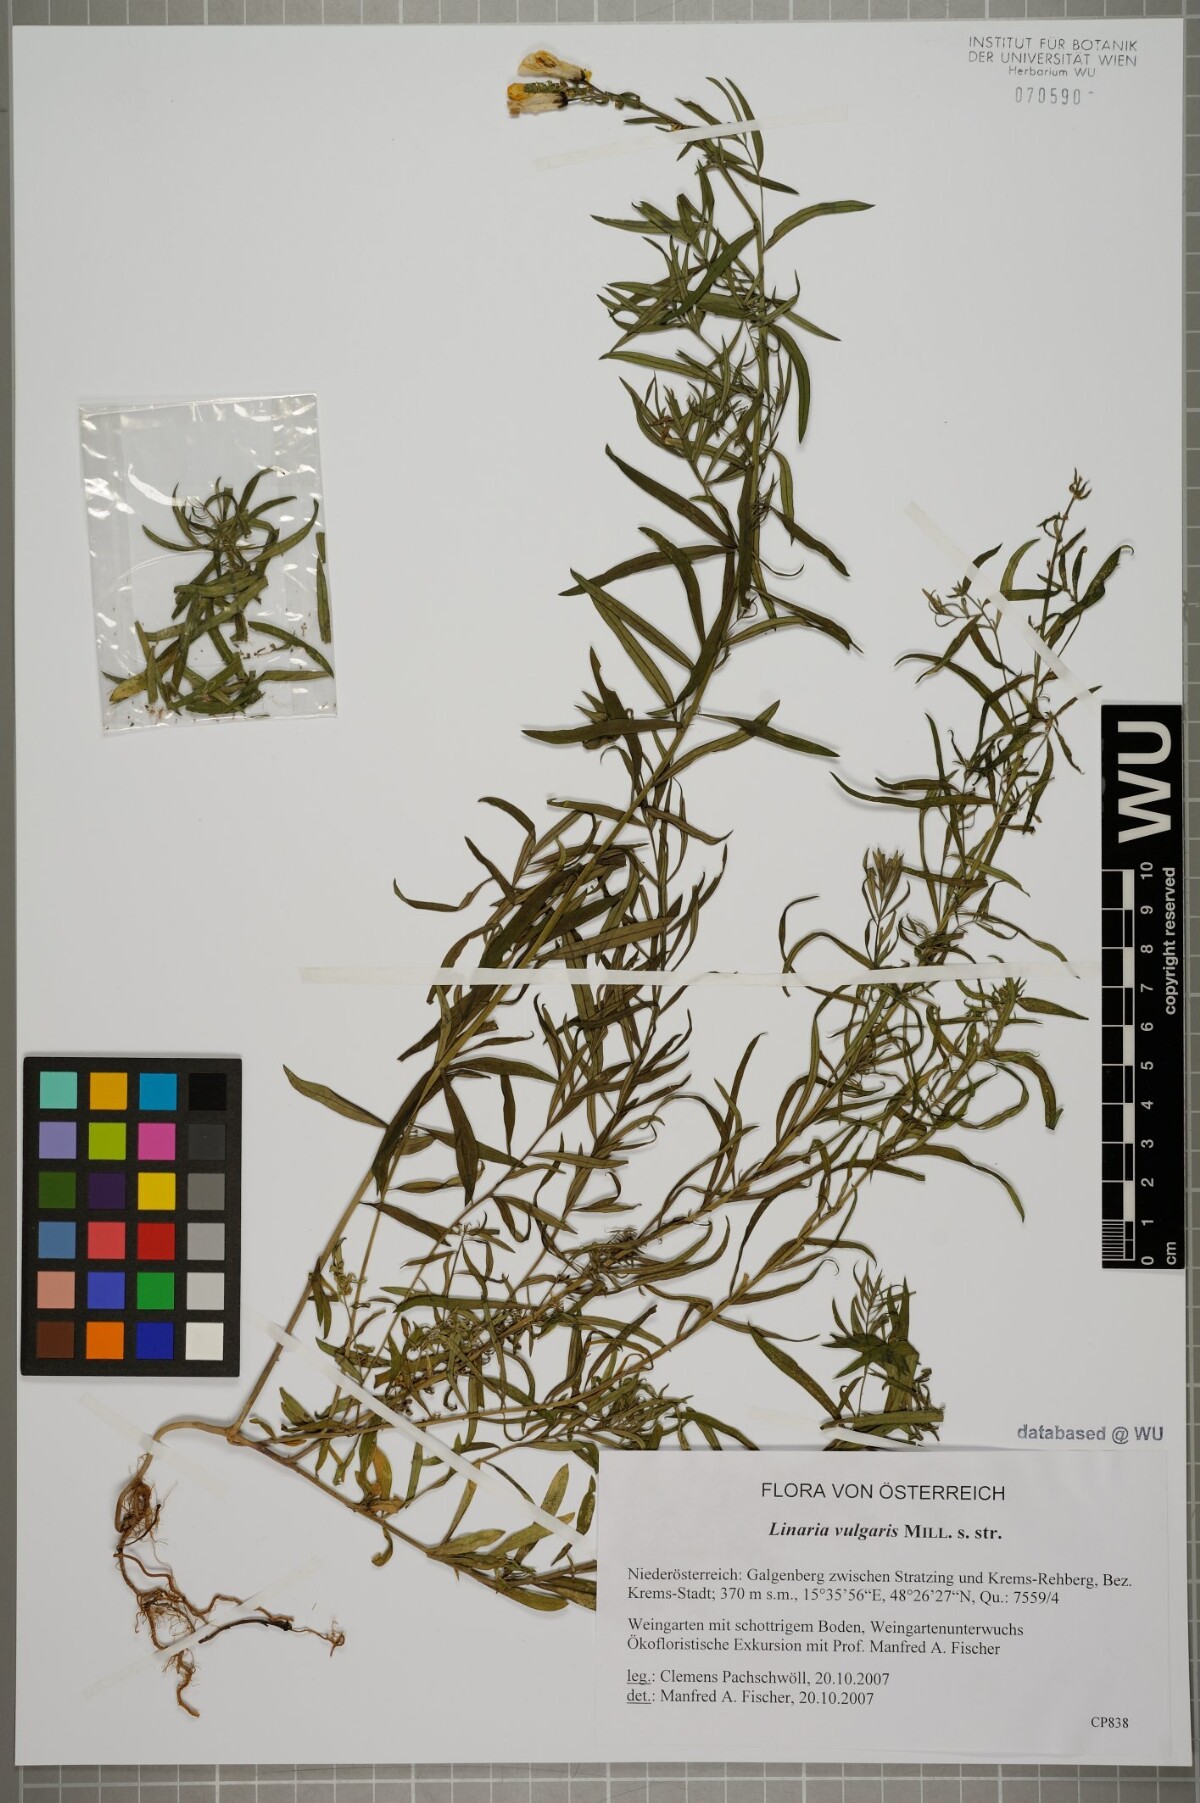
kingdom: Plantae
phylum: Tracheophyta
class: Magnoliopsida
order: Lamiales
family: Plantaginaceae
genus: Linaria
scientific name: Linaria vulgaris
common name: Butter and eggs
